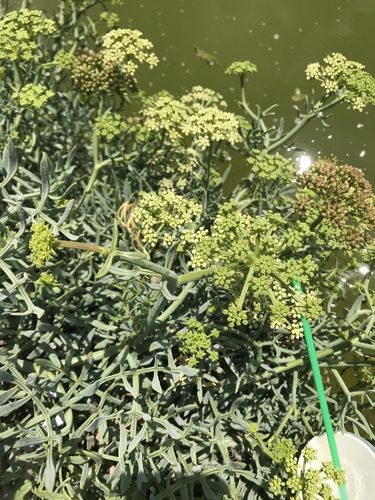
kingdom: Plantae
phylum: Tracheophyta
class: Magnoliopsida
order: Apiales
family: Apiaceae
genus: Crithmum
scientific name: Crithmum maritimum
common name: Rock samphire
